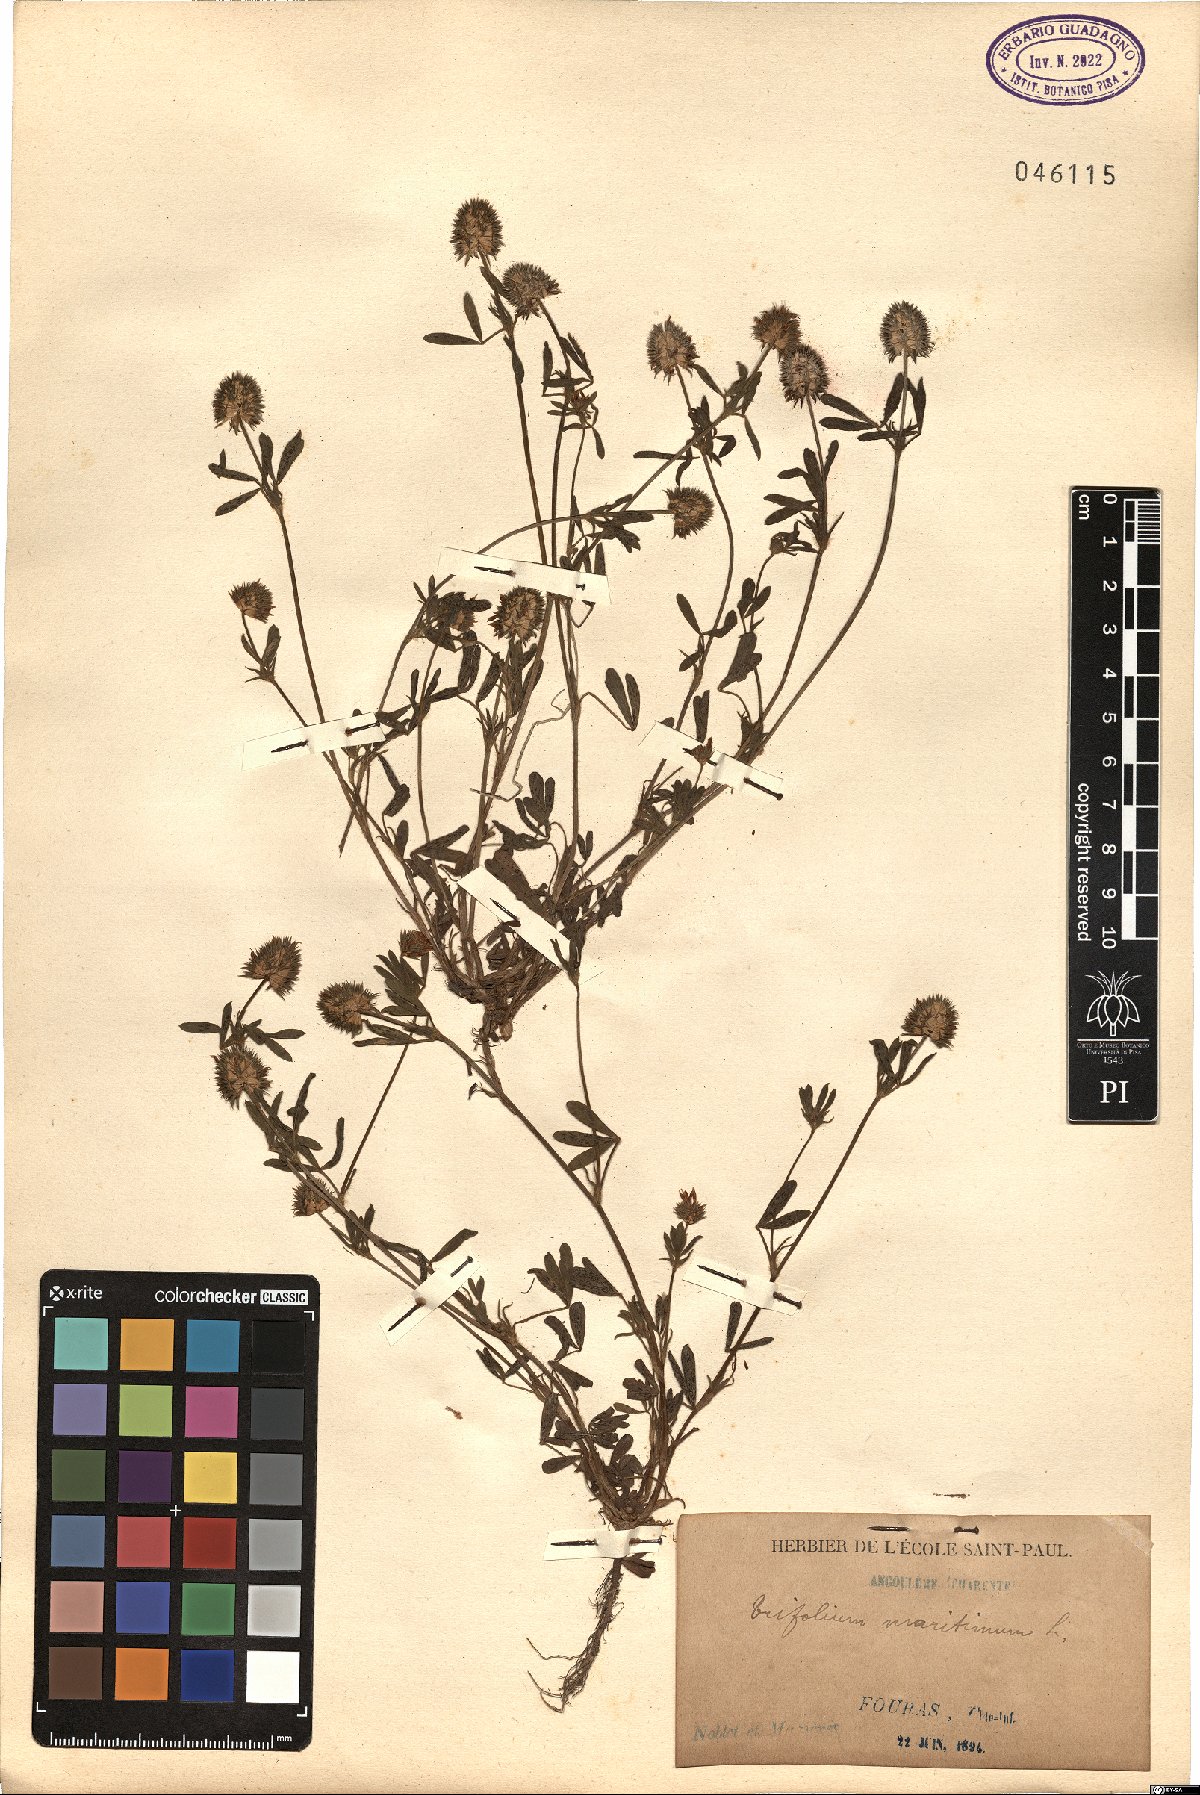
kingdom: Plantae
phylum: Tracheophyta
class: Magnoliopsida
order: Fabales
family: Fabaceae
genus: Trifolium
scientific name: Trifolium squamosum
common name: Sea clover
